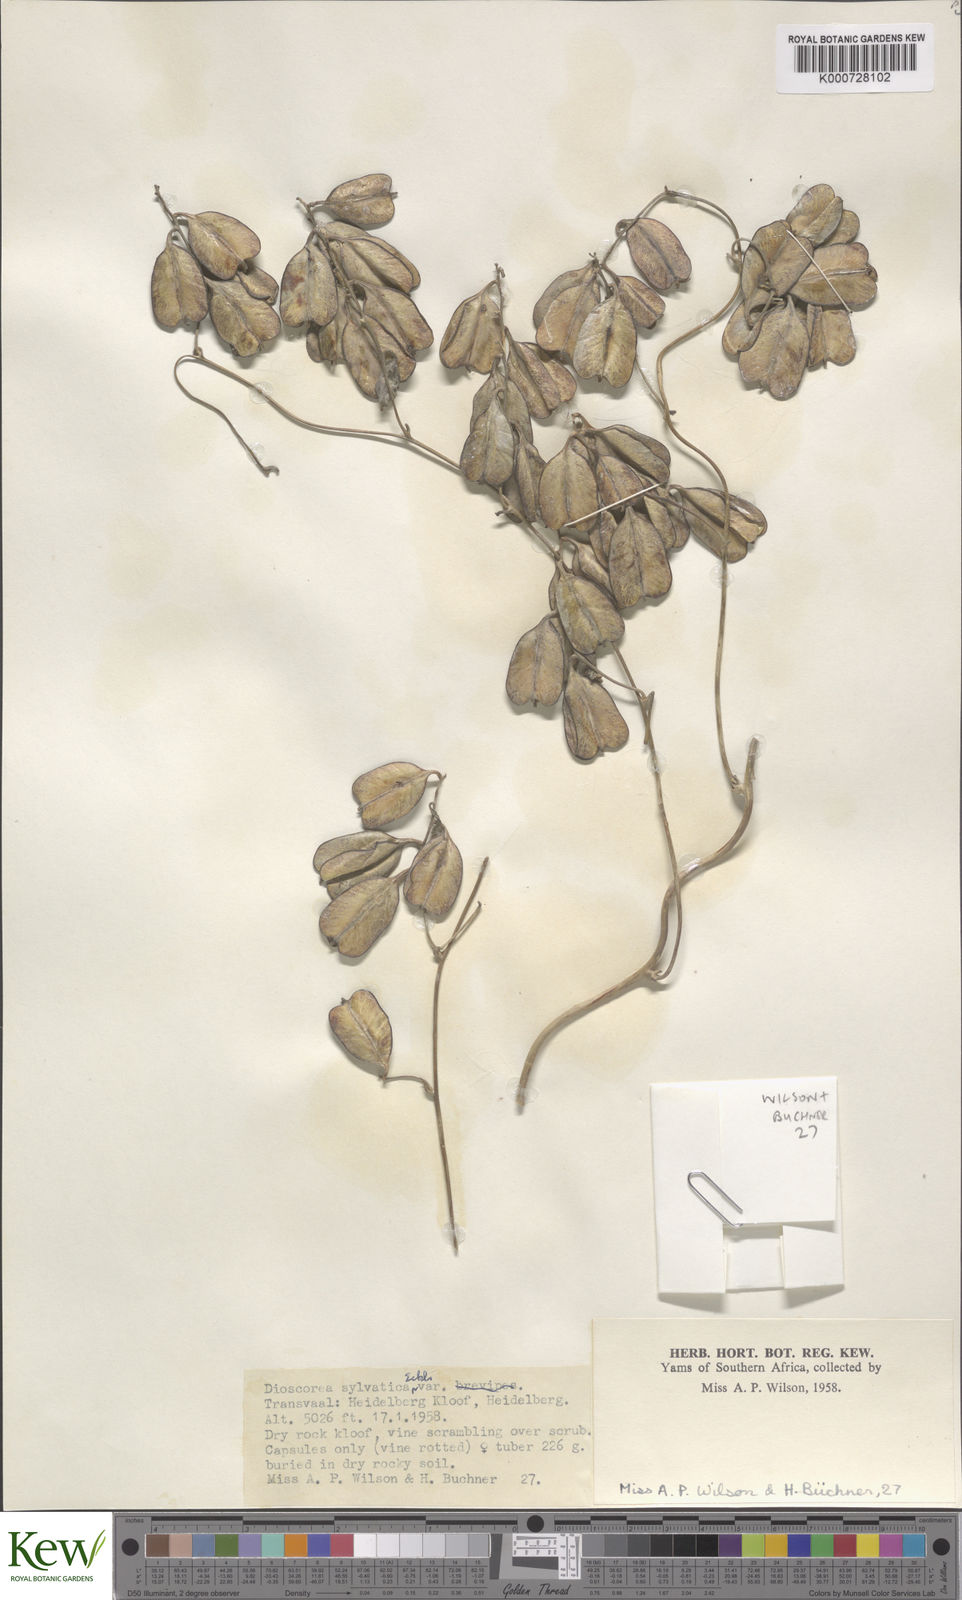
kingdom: Plantae
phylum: Tracheophyta
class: Liliopsida
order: Dioscoreales
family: Dioscoreaceae
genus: Dioscorea
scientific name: Dioscorea sylvatica
